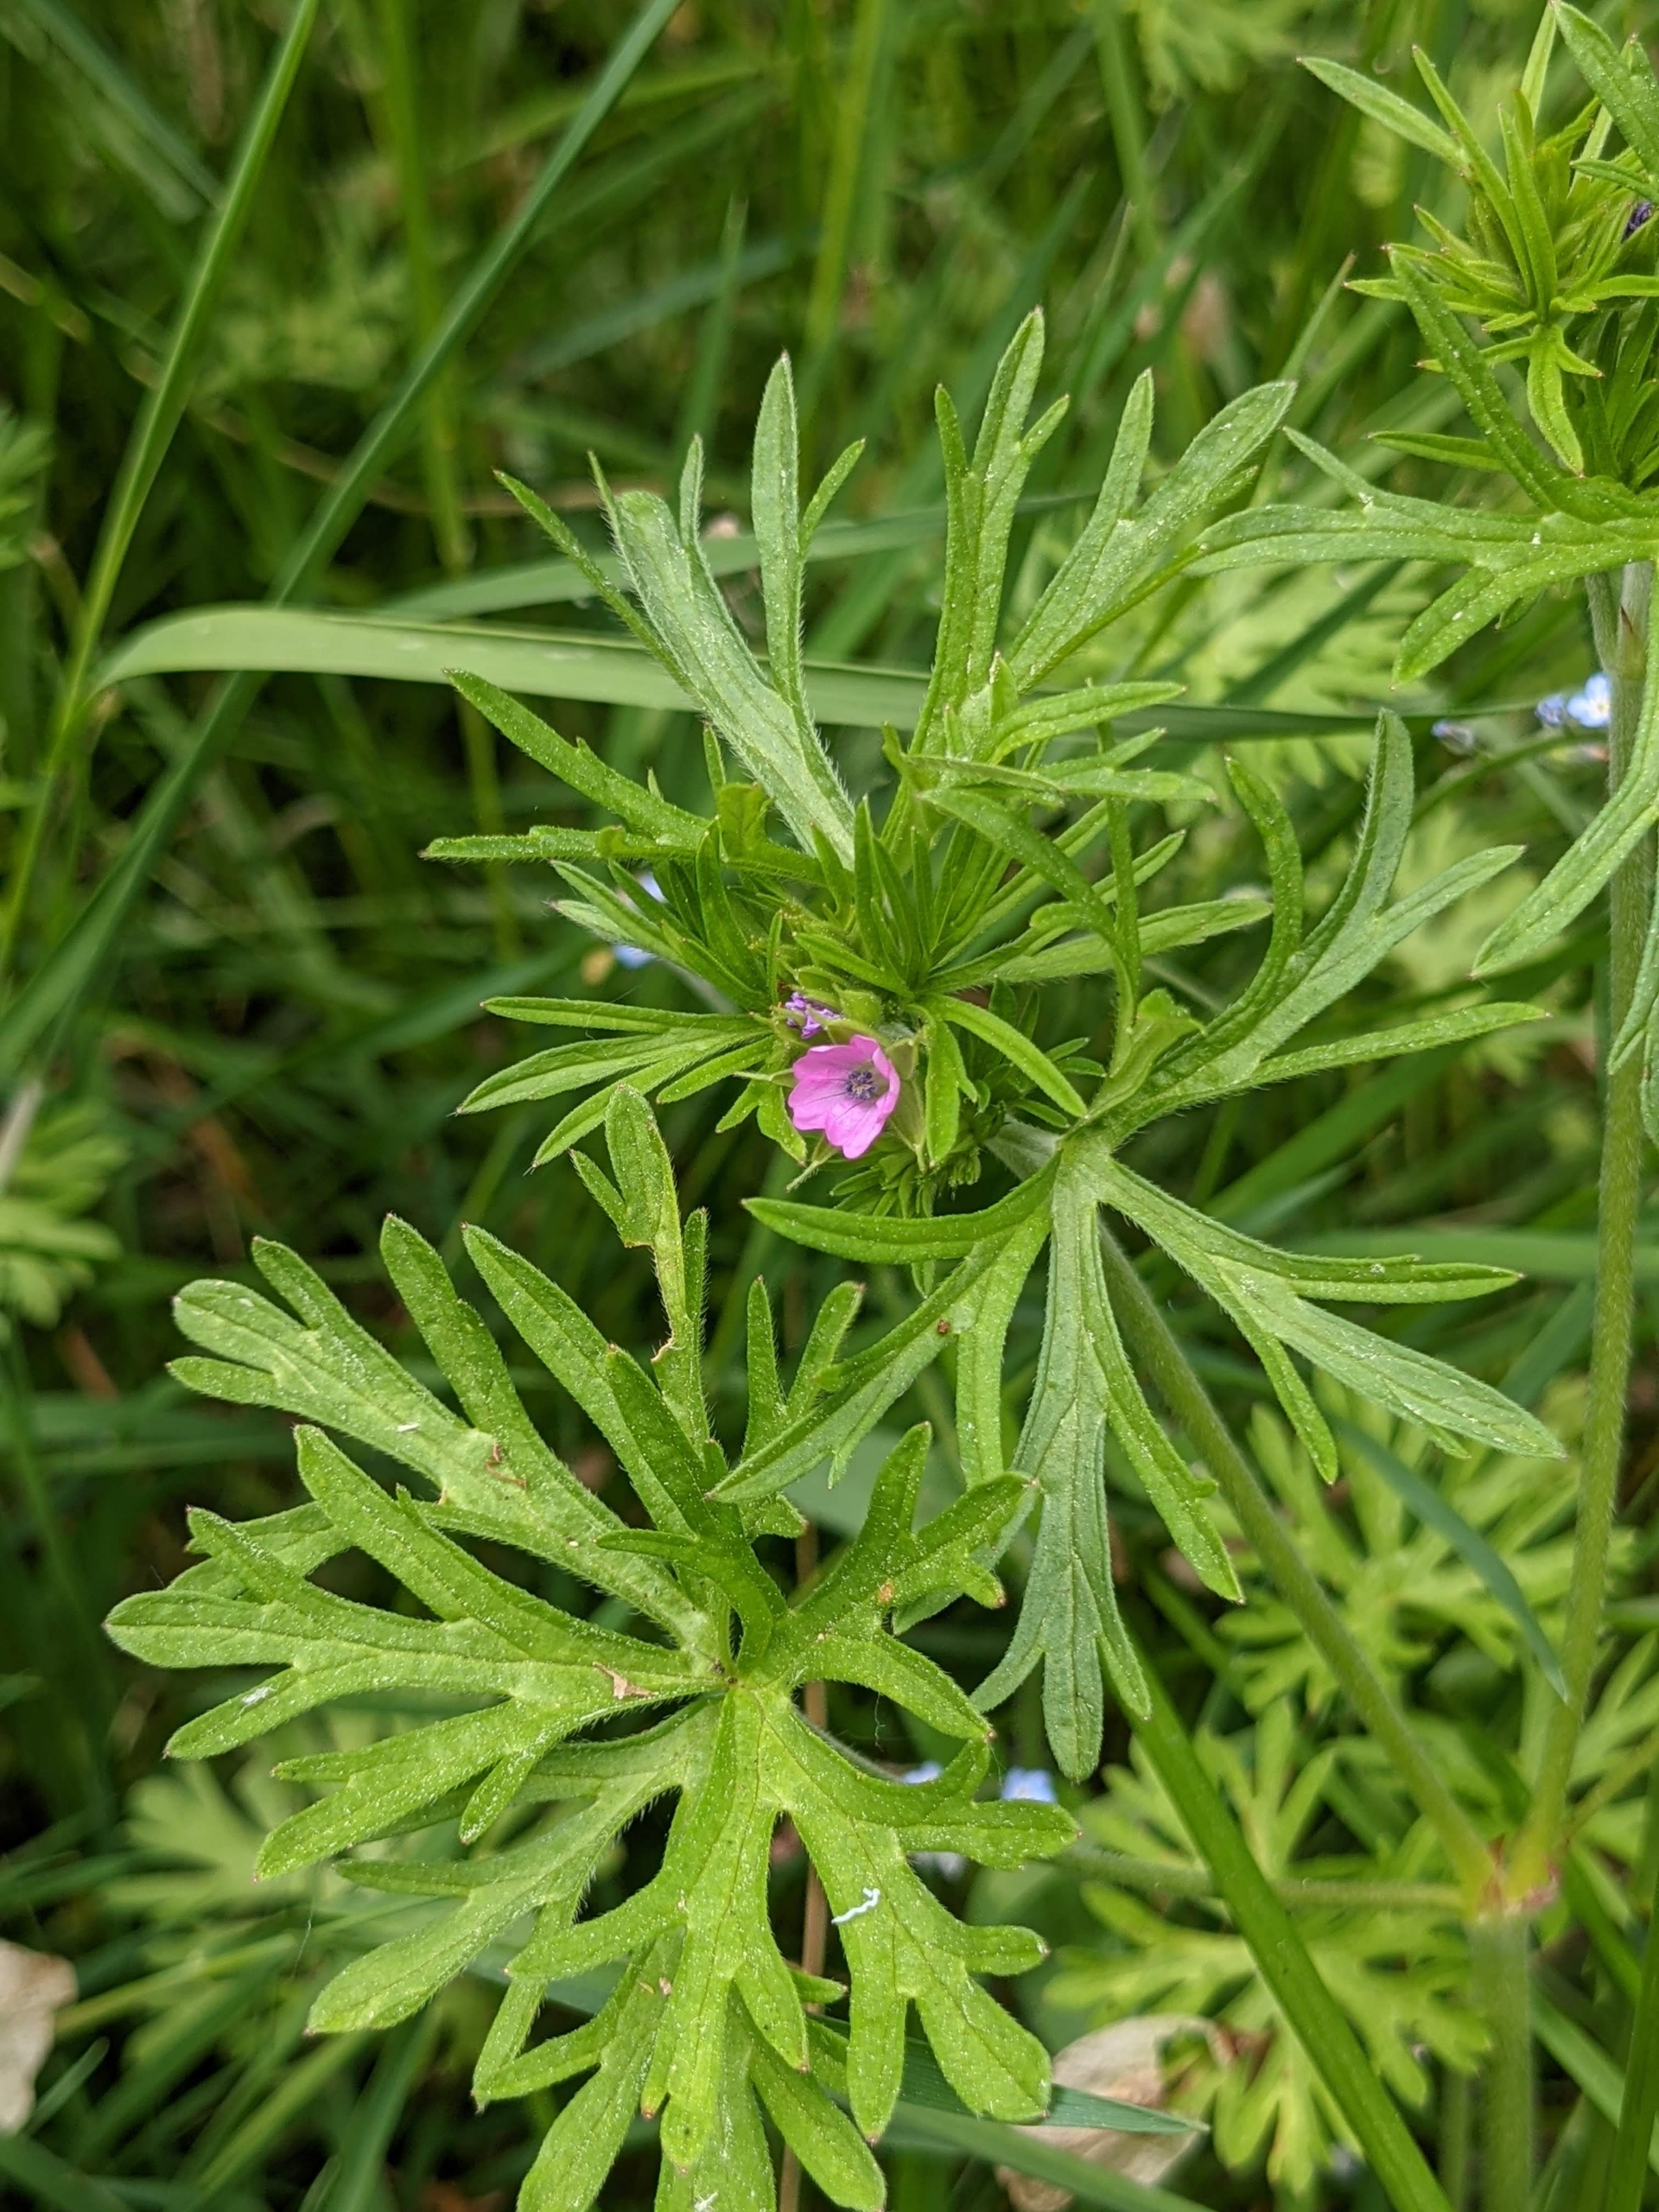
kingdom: Plantae
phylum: Tracheophyta
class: Magnoliopsida
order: Geraniales
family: Geraniaceae
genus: Geranium
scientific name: Geranium dissectum
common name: Kløftet storkenæb
